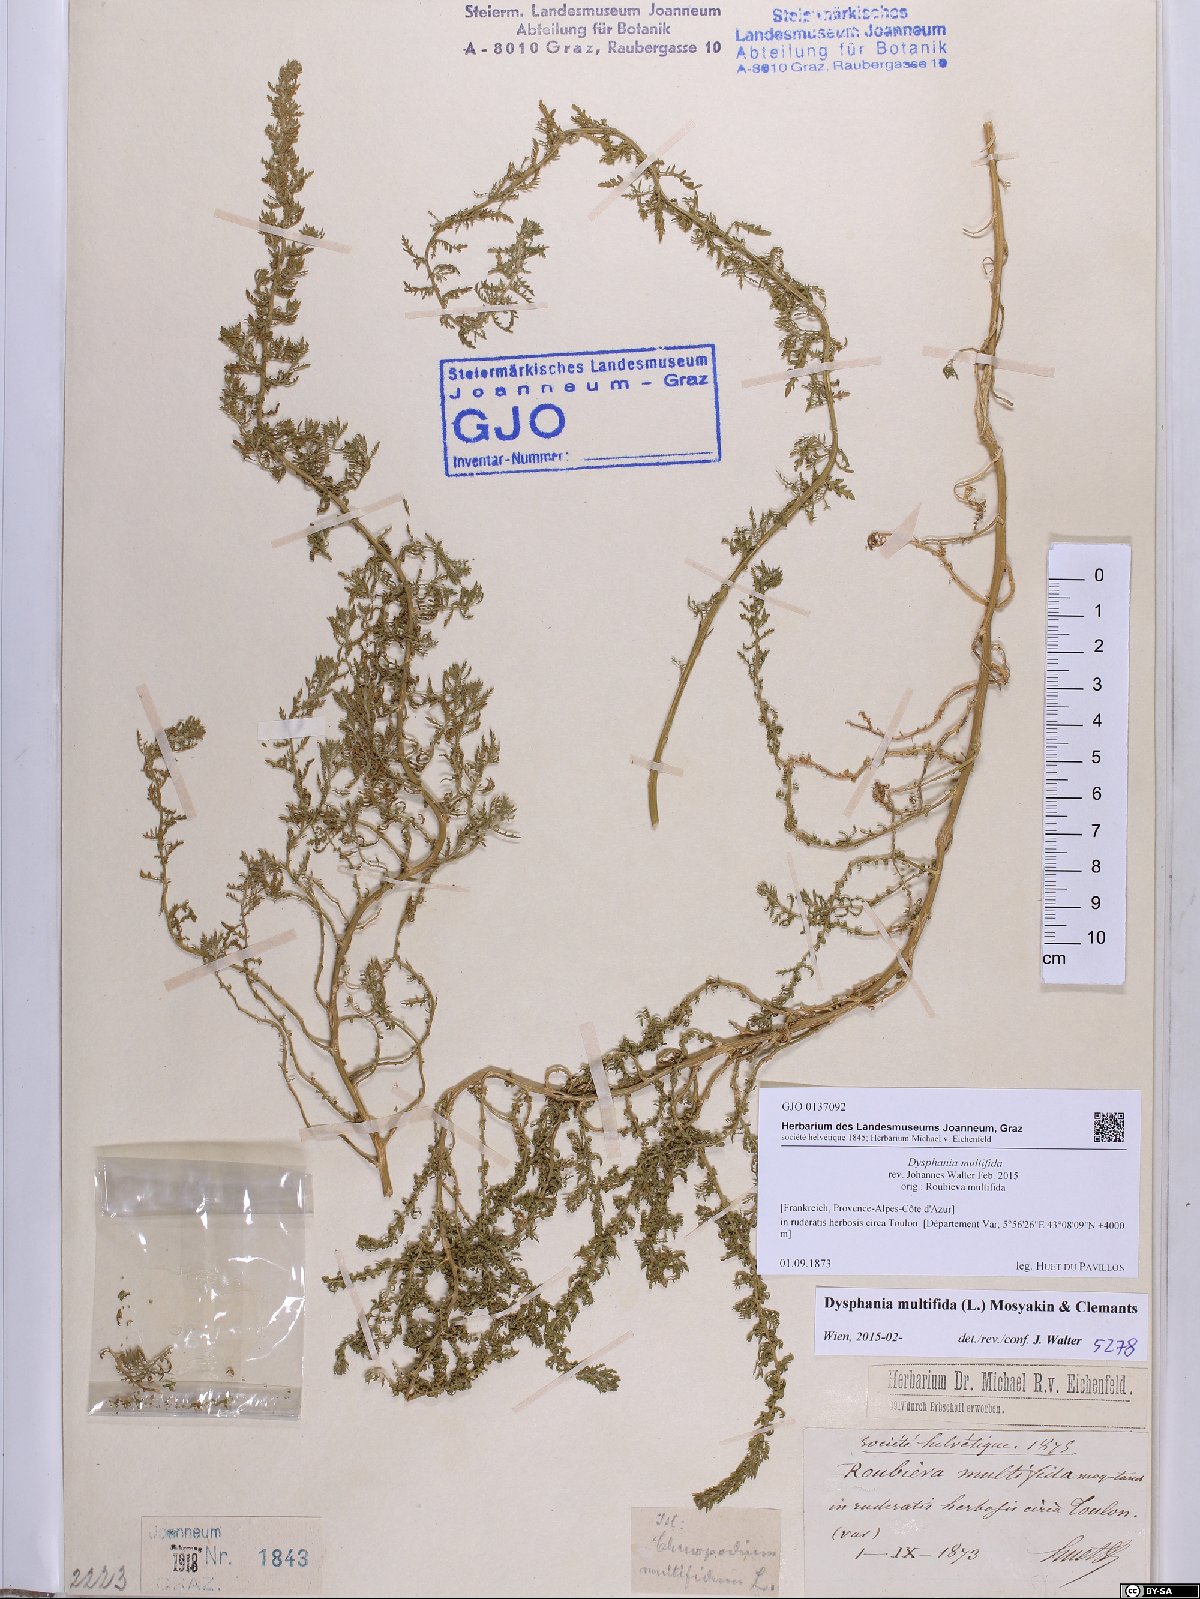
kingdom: Plantae
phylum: Tracheophyta
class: Magnoliopsida
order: Caryophyllales
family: Amaranthaceae
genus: Dysphania
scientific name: Dysphania multifida
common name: Cutleaf goosefoot
